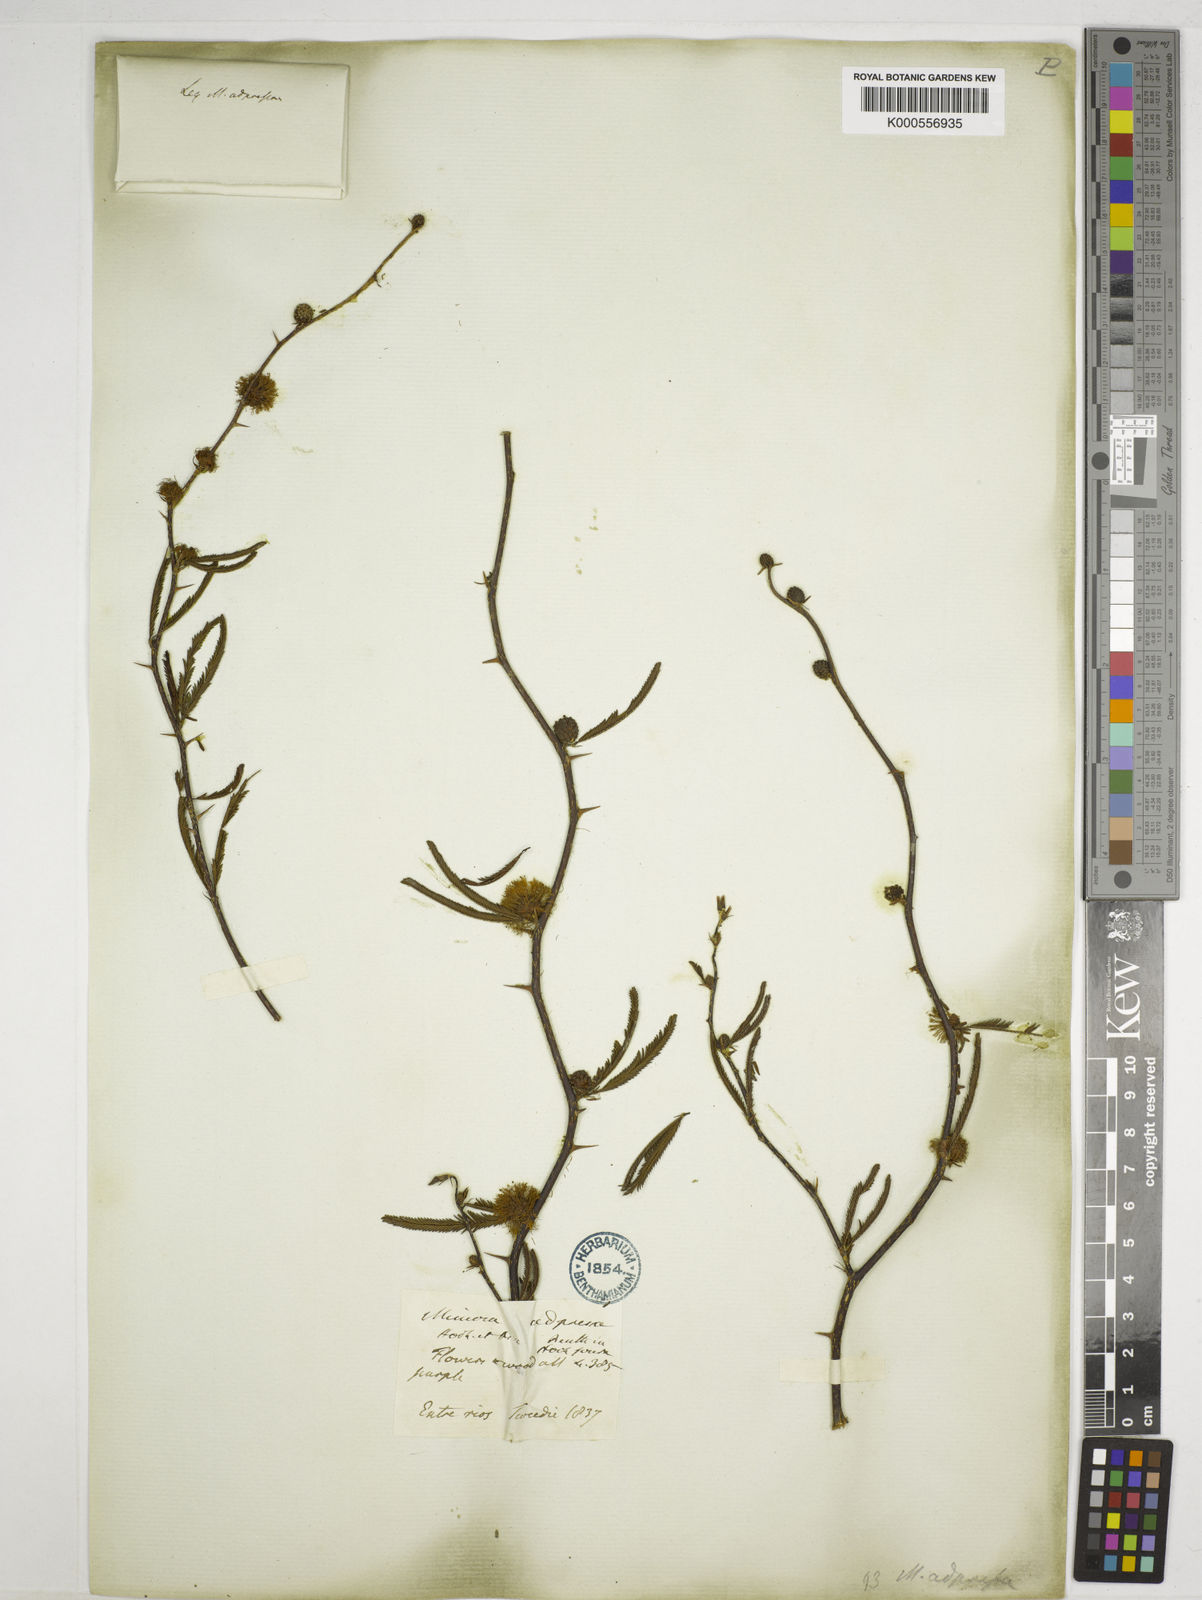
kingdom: Plantae
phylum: Tracheophyta
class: Magnoliopsida
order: Fabales
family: Fabaceae
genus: Mimosa
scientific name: Mimosa adpressa
